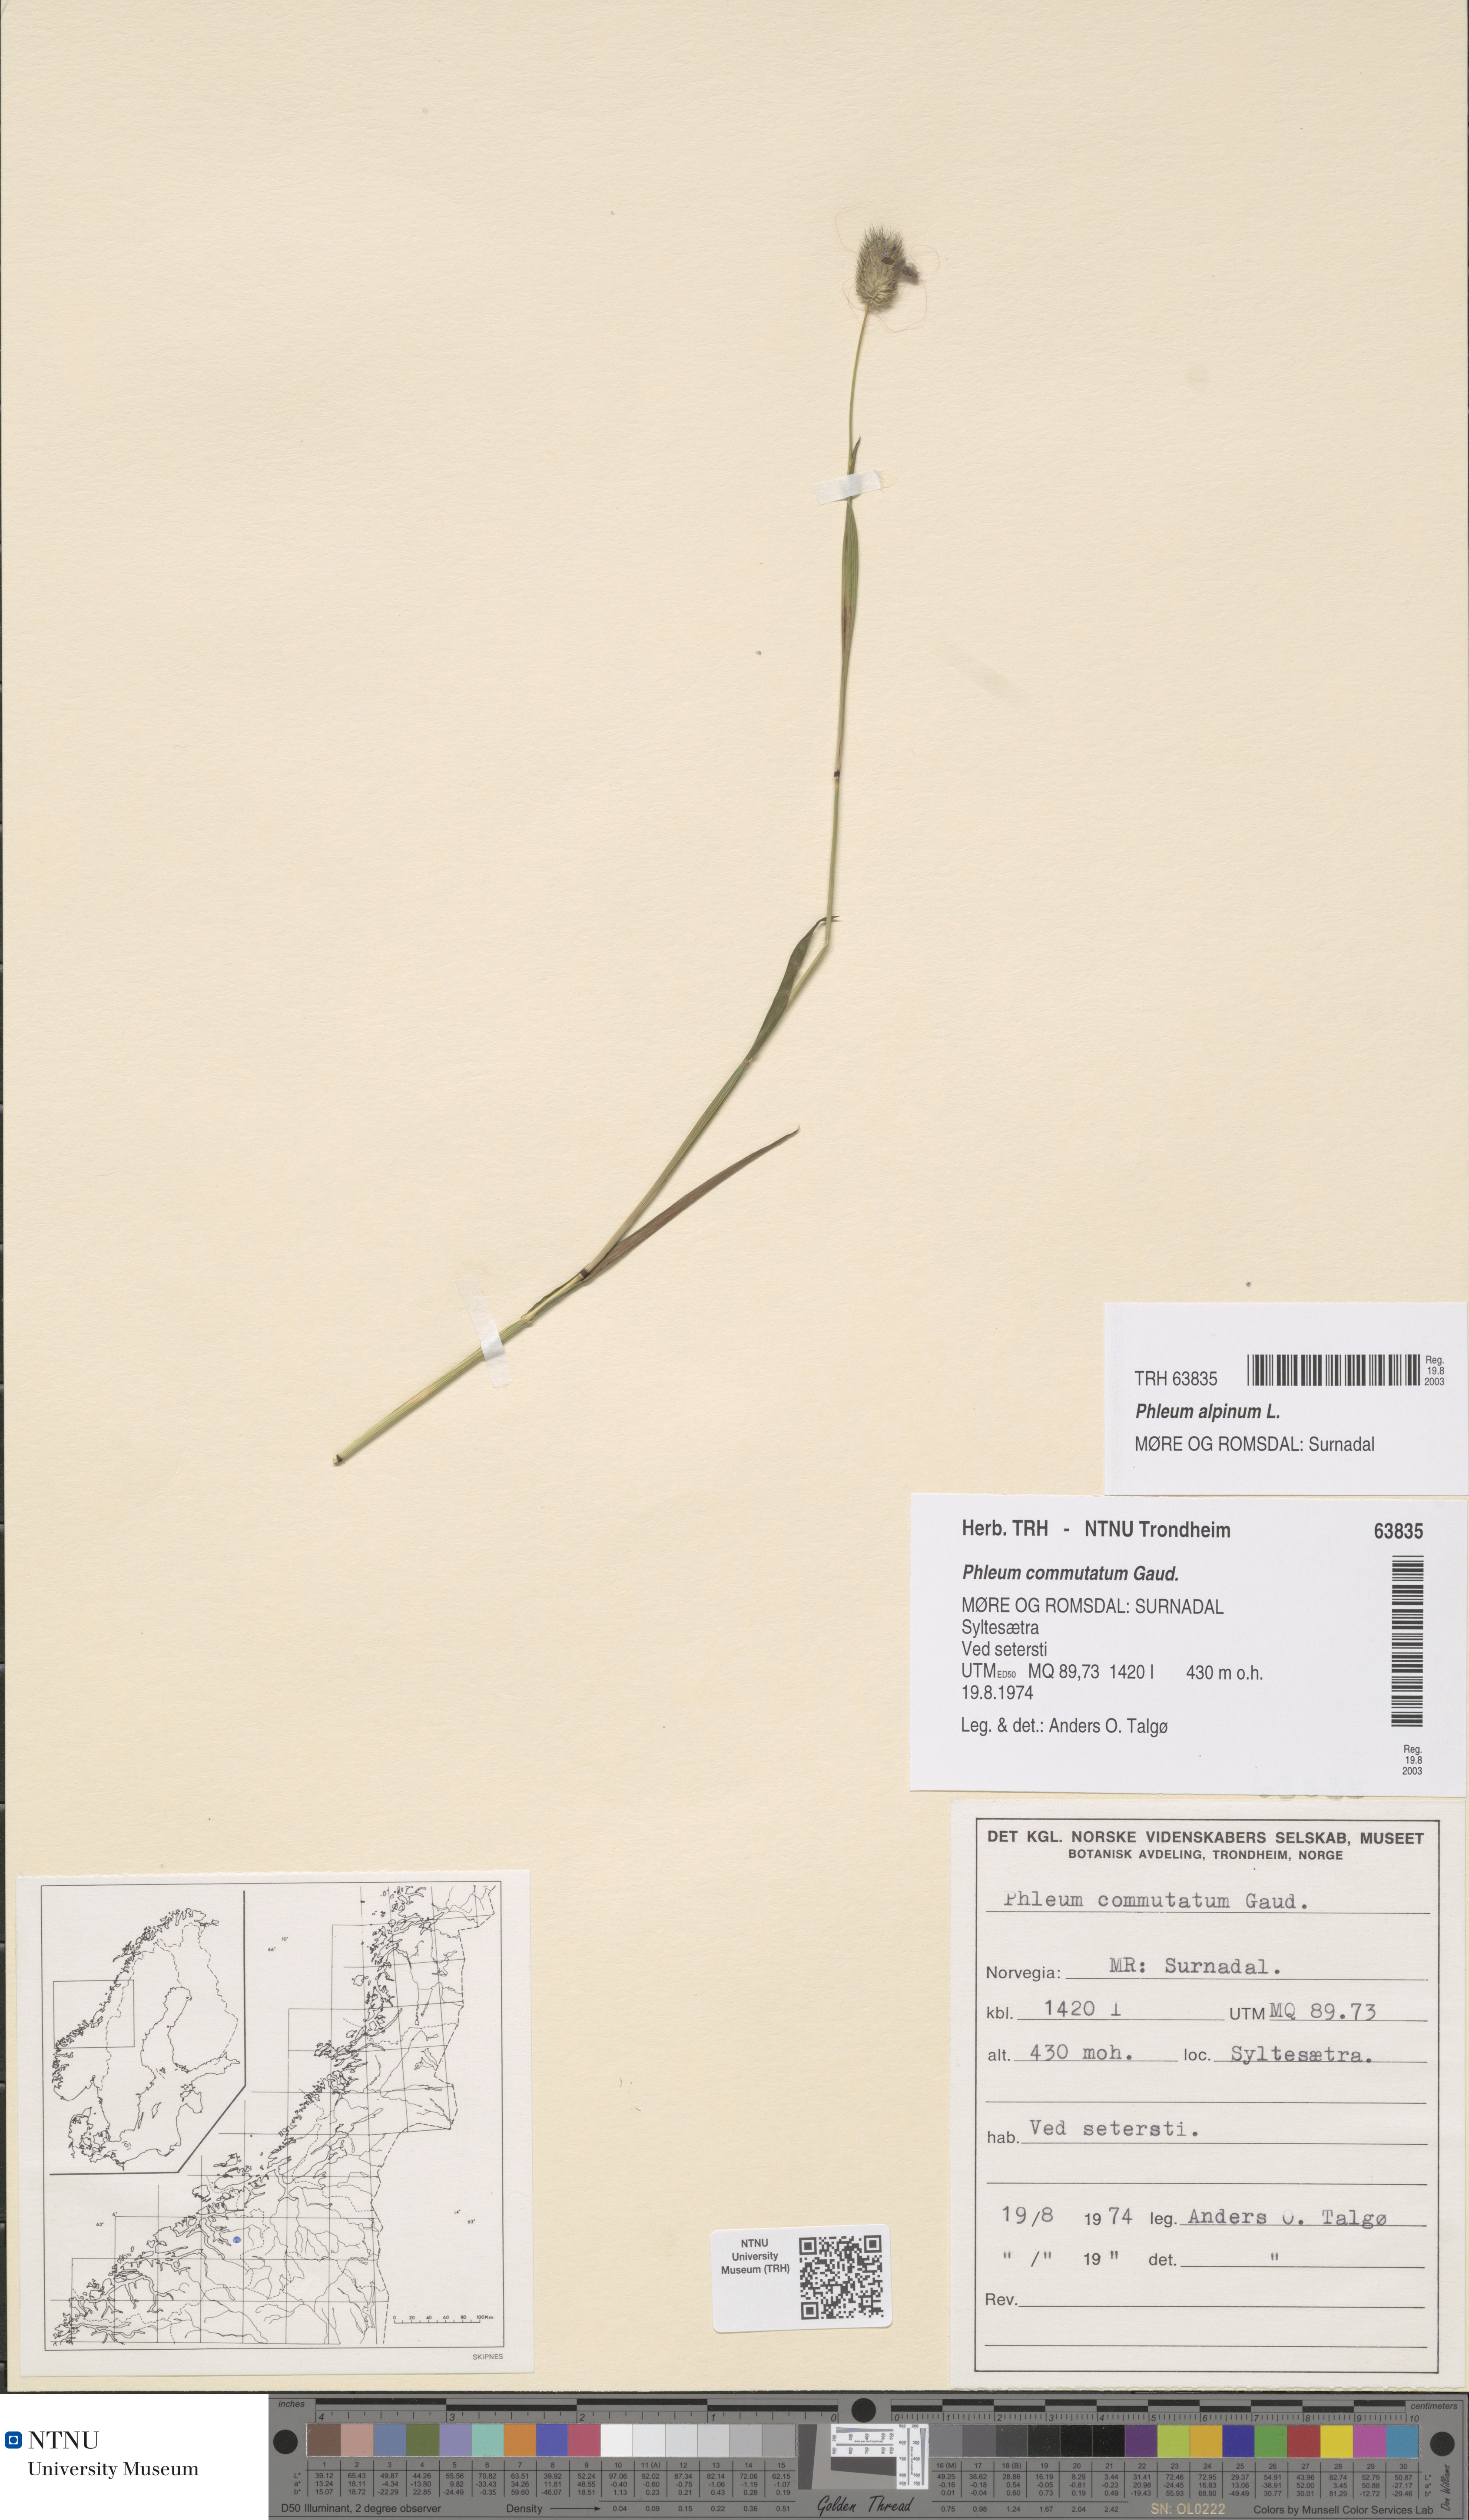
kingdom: Plantae
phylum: Tracheophyta
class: Liliopsida
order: Poales
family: Poaceae
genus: Phleum
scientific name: Phleum alpinum
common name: Alpine cat's-tail
